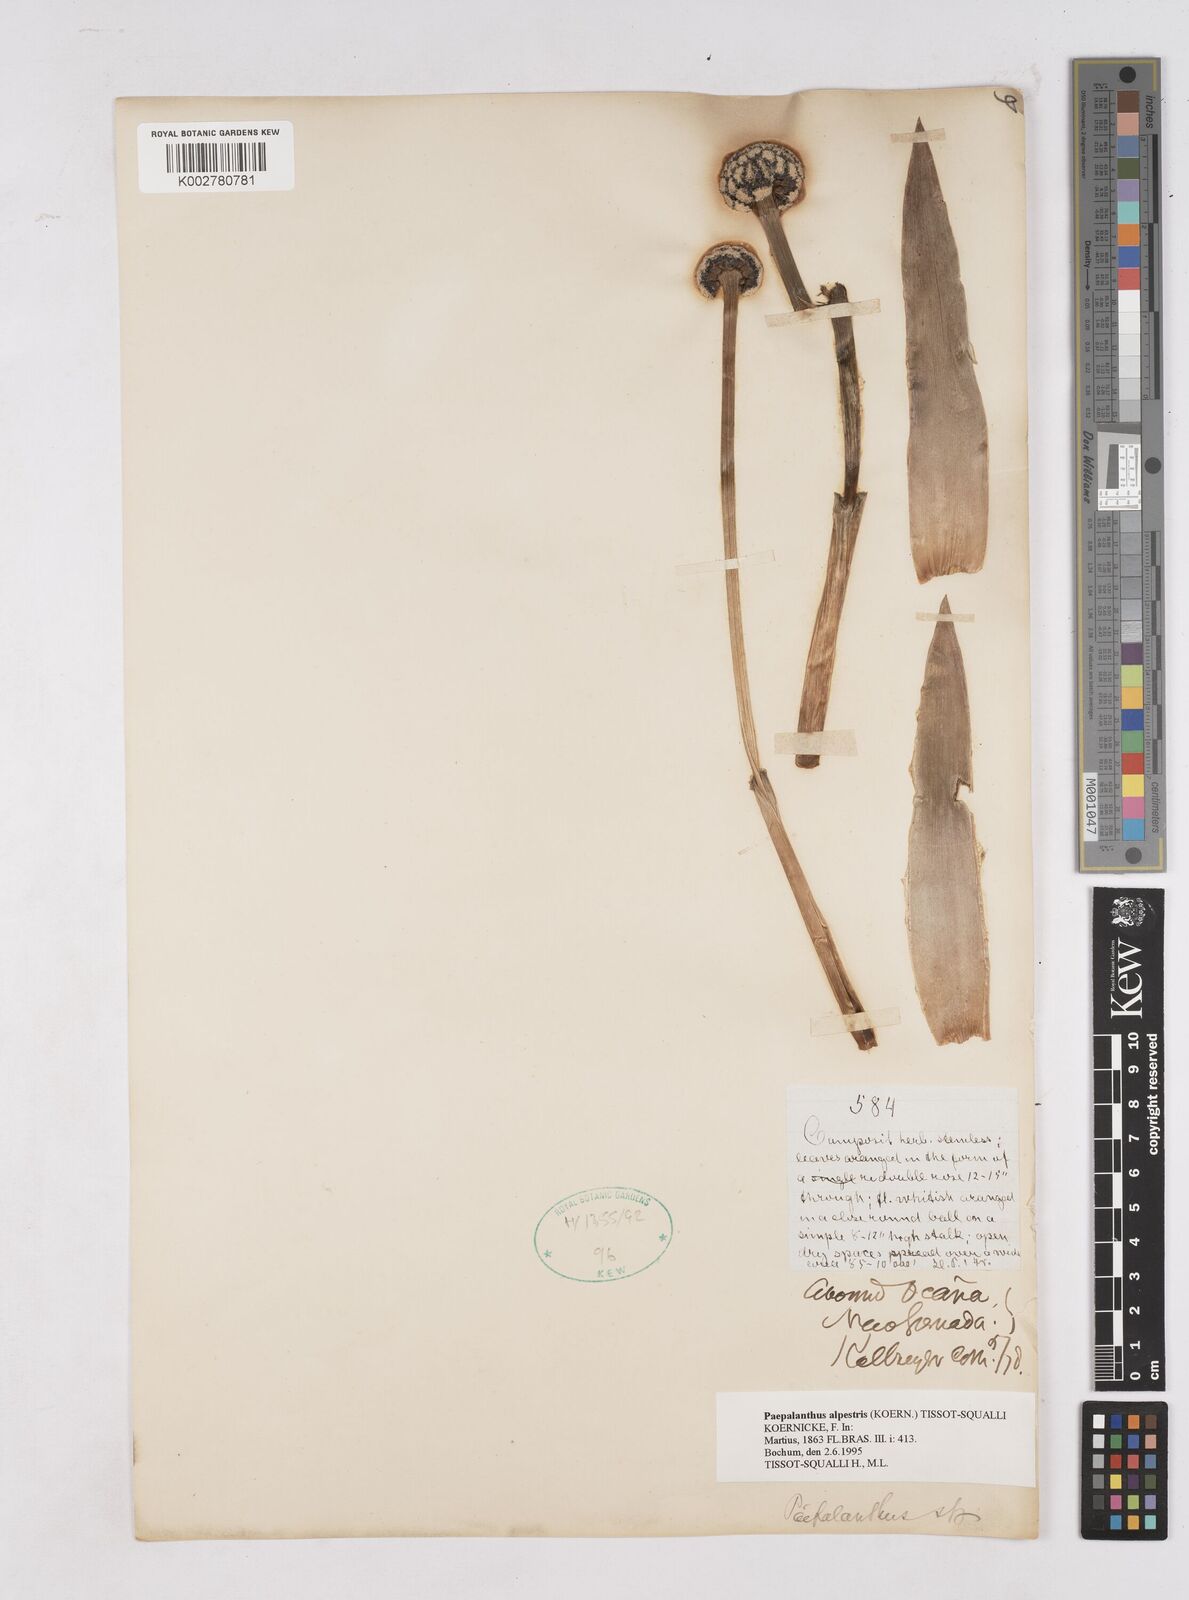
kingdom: Plantae
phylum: Tracheophyta
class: Liliopsida
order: Poales
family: Eriocaulaceae
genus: Paepalanthus
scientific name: Paepalanthus alpestris
